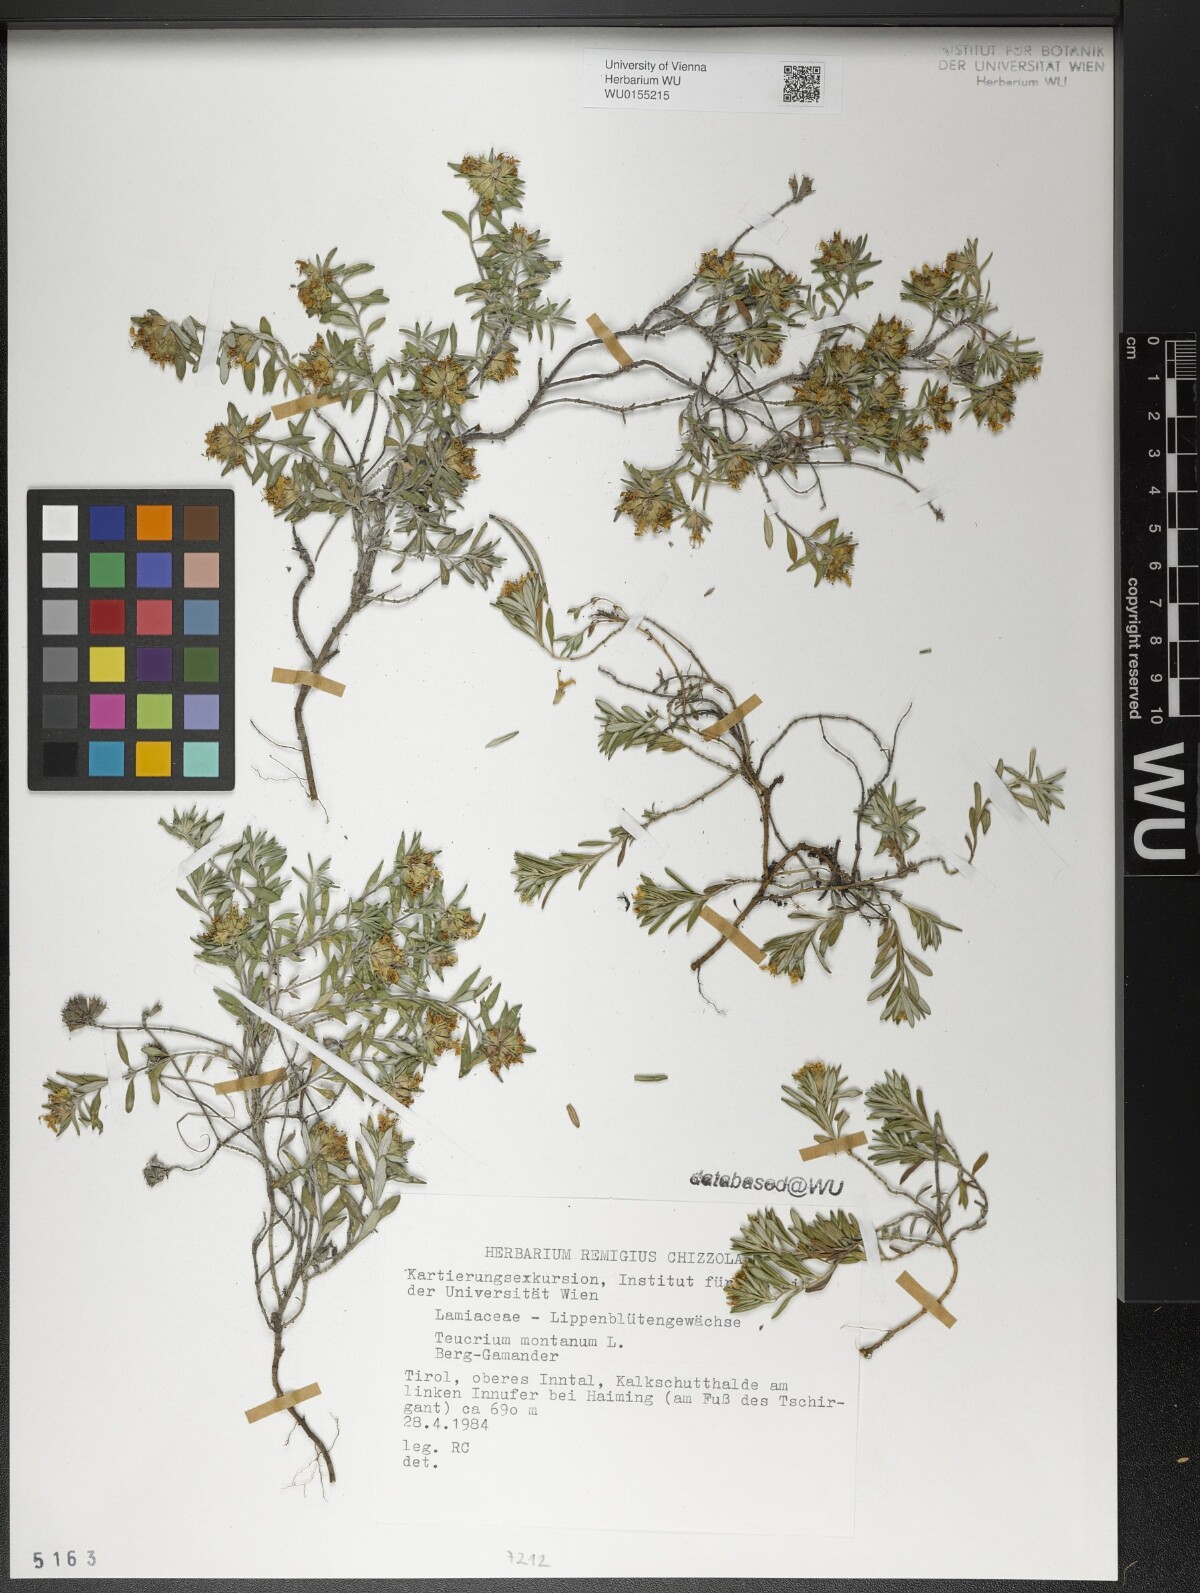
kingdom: Plantae
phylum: Tracheophyta
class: Magnoliopsida
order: Lamiales
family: Lamiaceae
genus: Teucrium
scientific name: Teucrium montanum
